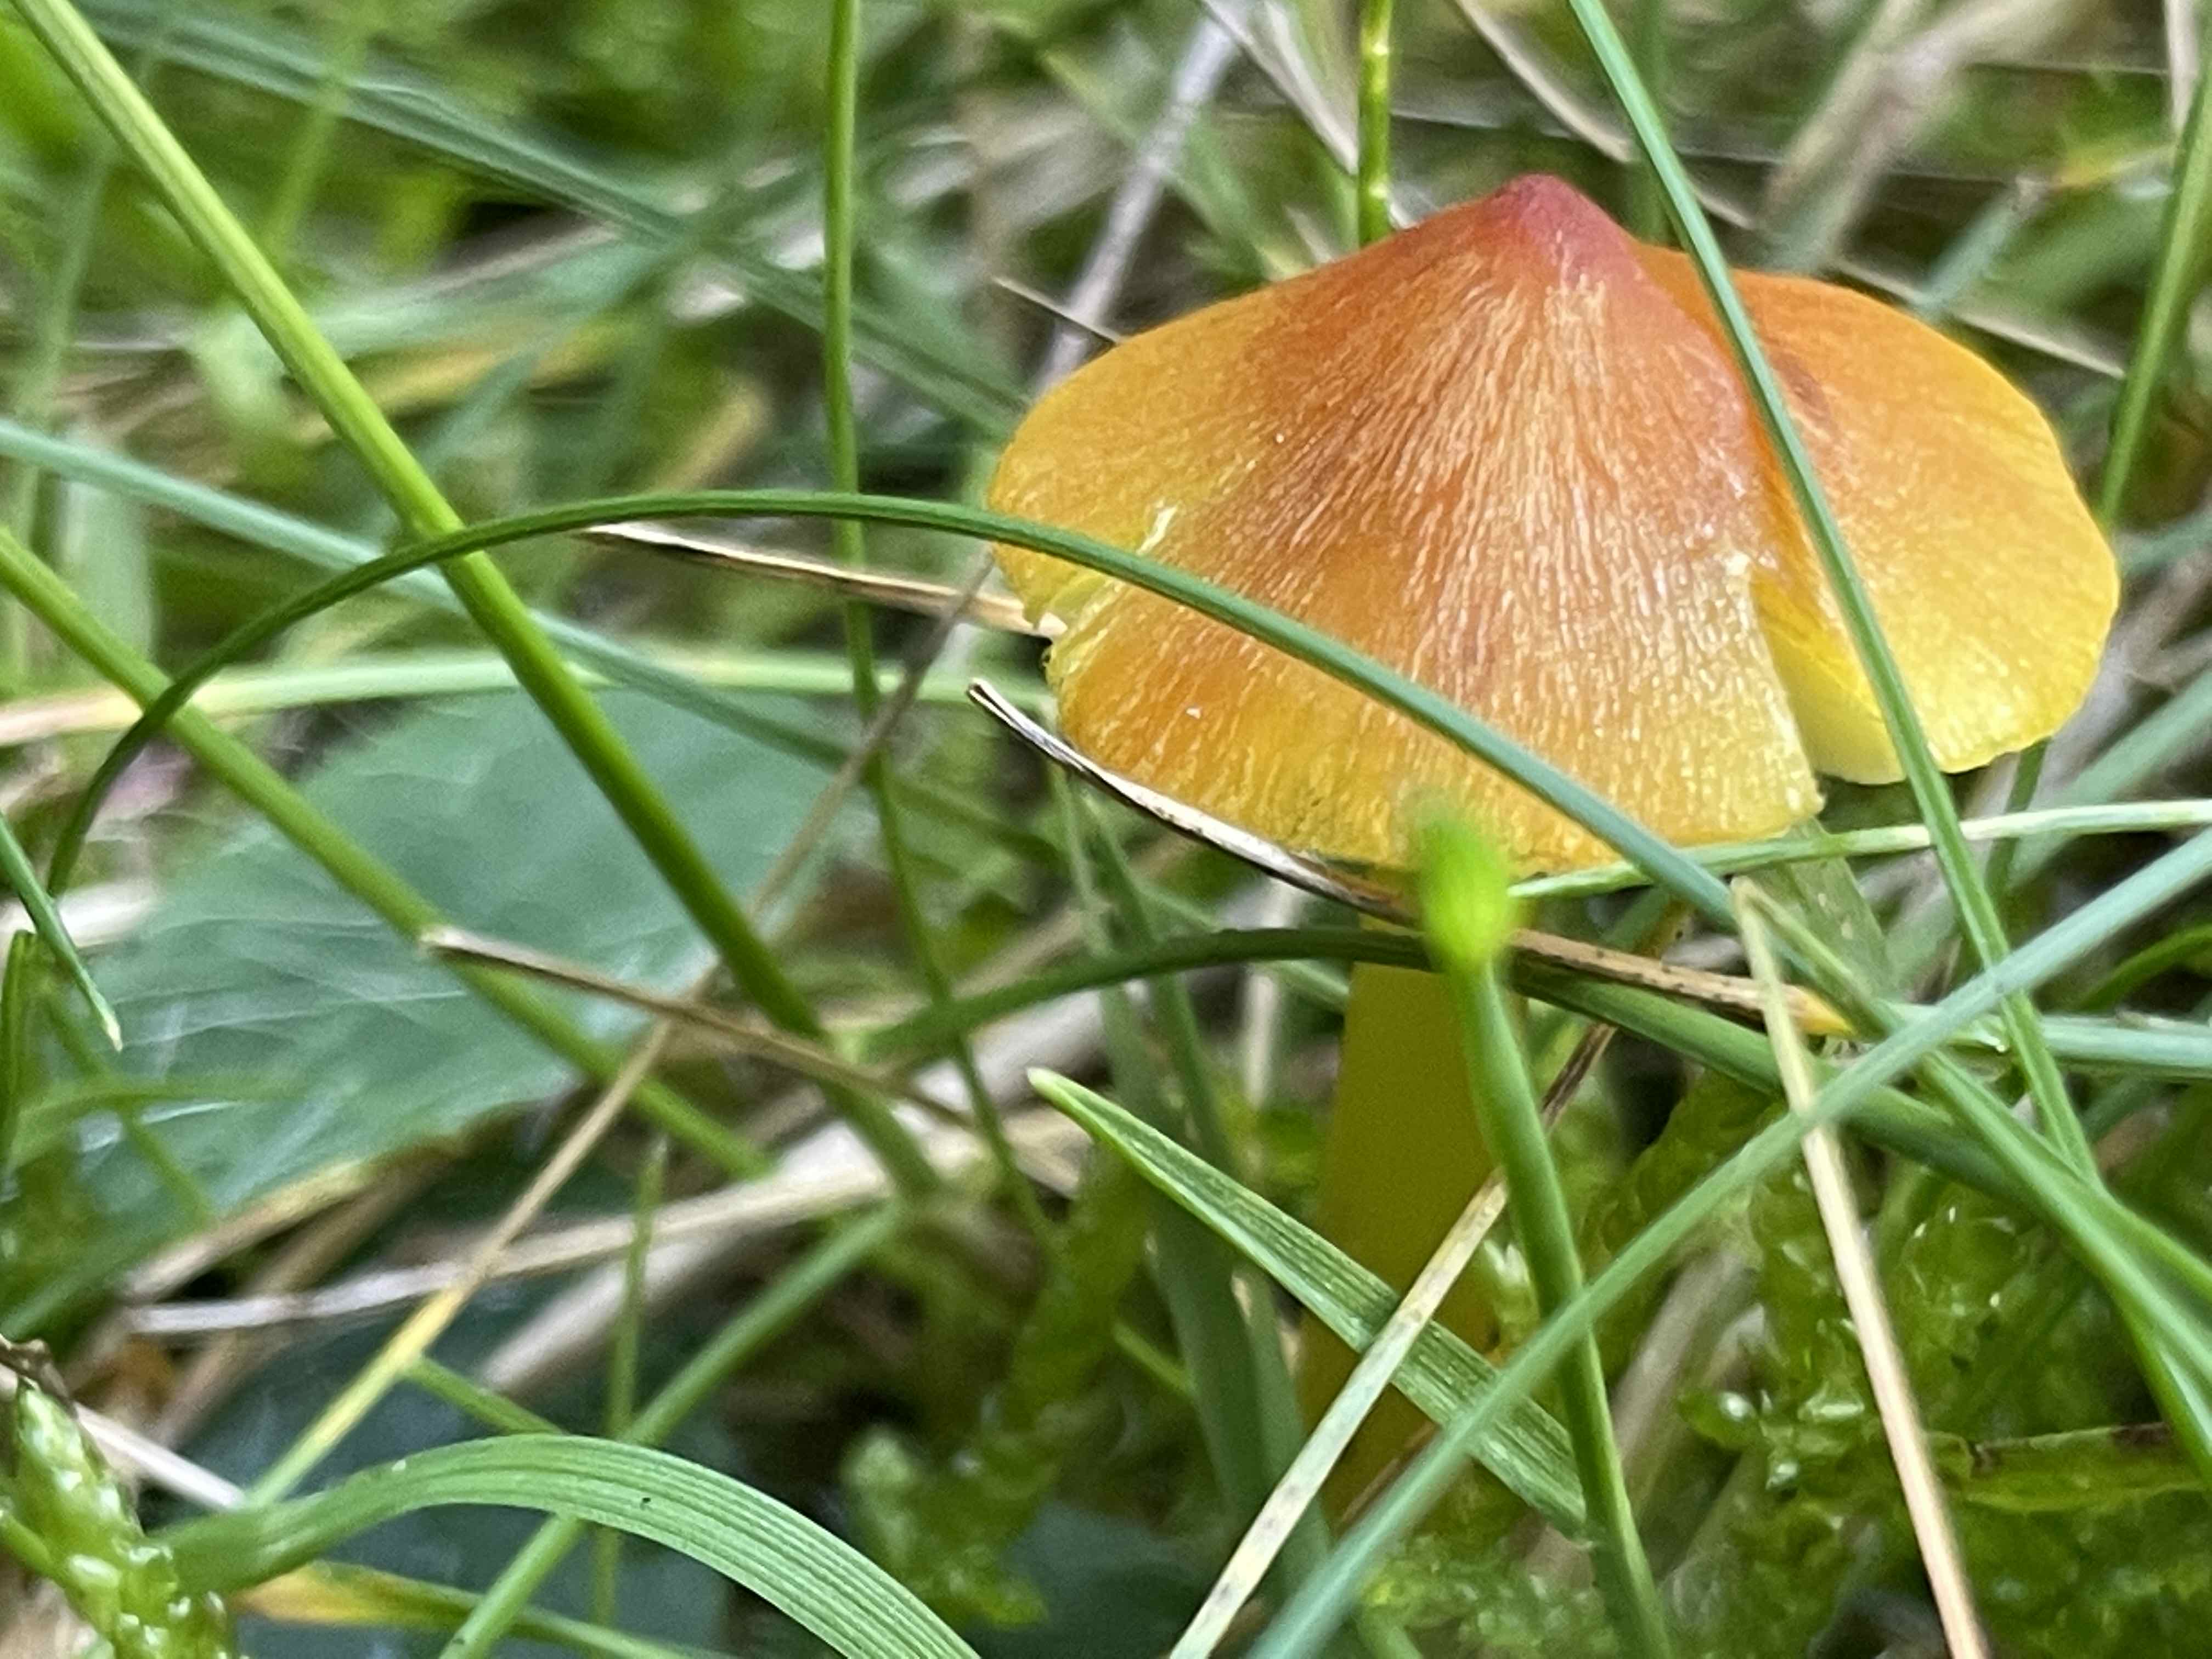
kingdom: Fungi
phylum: Basidiomycota
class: Agaricomycetes
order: Agaricales
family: Hygrophoraceae
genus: Hygrocybe
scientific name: Hygrocybe conica
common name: kegle-vokshat
